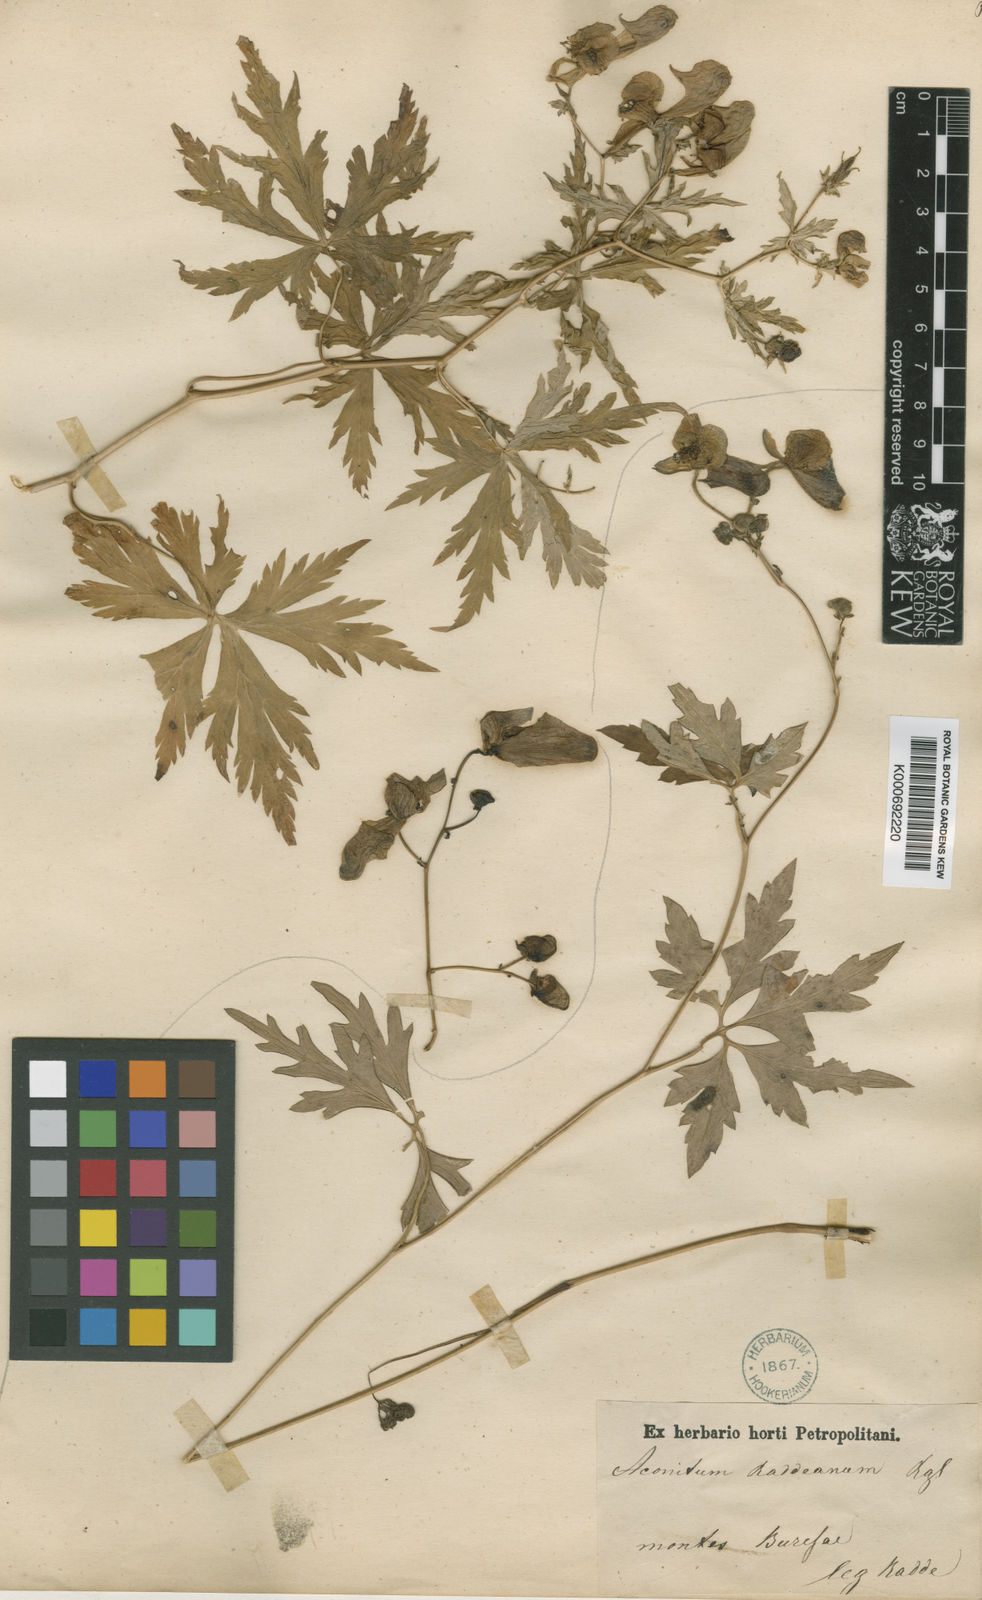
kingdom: Plantae
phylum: Tracheophyta
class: Magnoliopsida
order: Ranunculales
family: Ranunculaceae
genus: Aconitum
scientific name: Aconitum raddeanum
